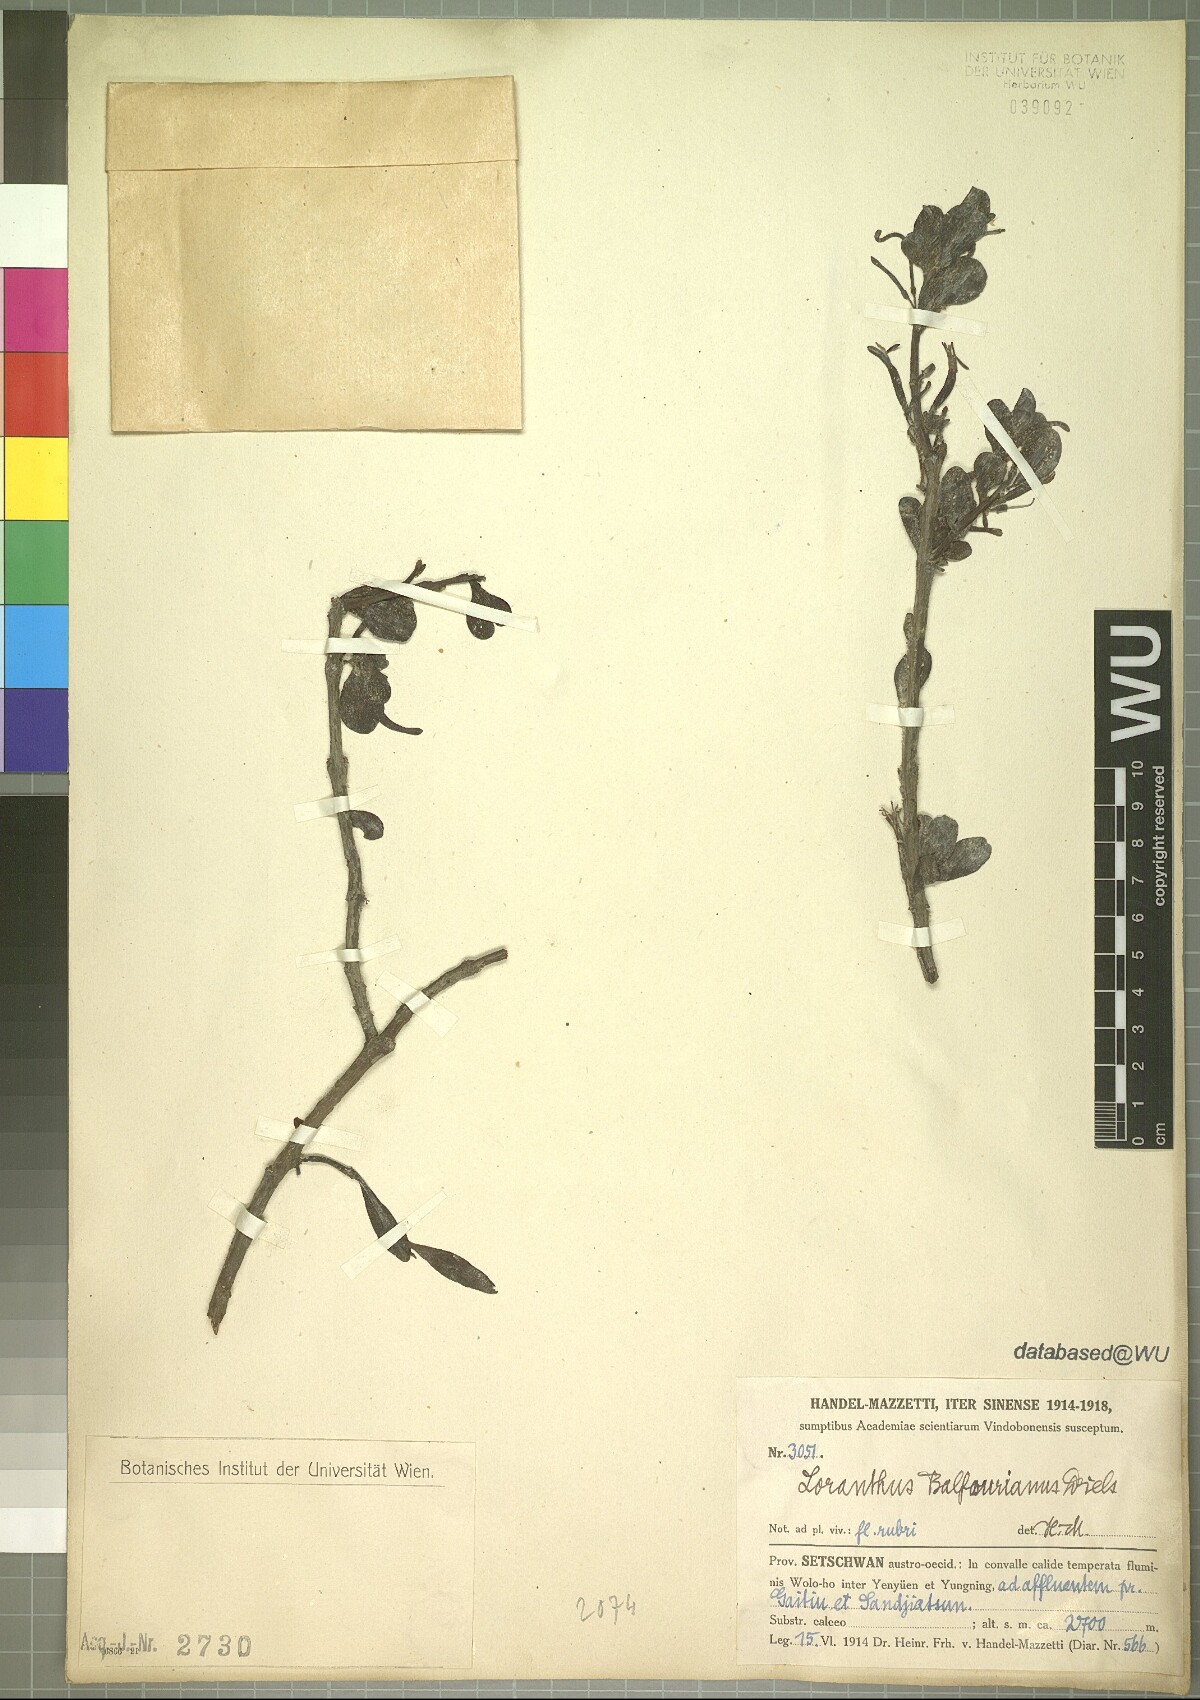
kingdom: Plantae
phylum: Tracheophyta
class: Magnoliopsida
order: Santalales
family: Loranthaceae
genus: Taxillus
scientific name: Taxillus delavayi
